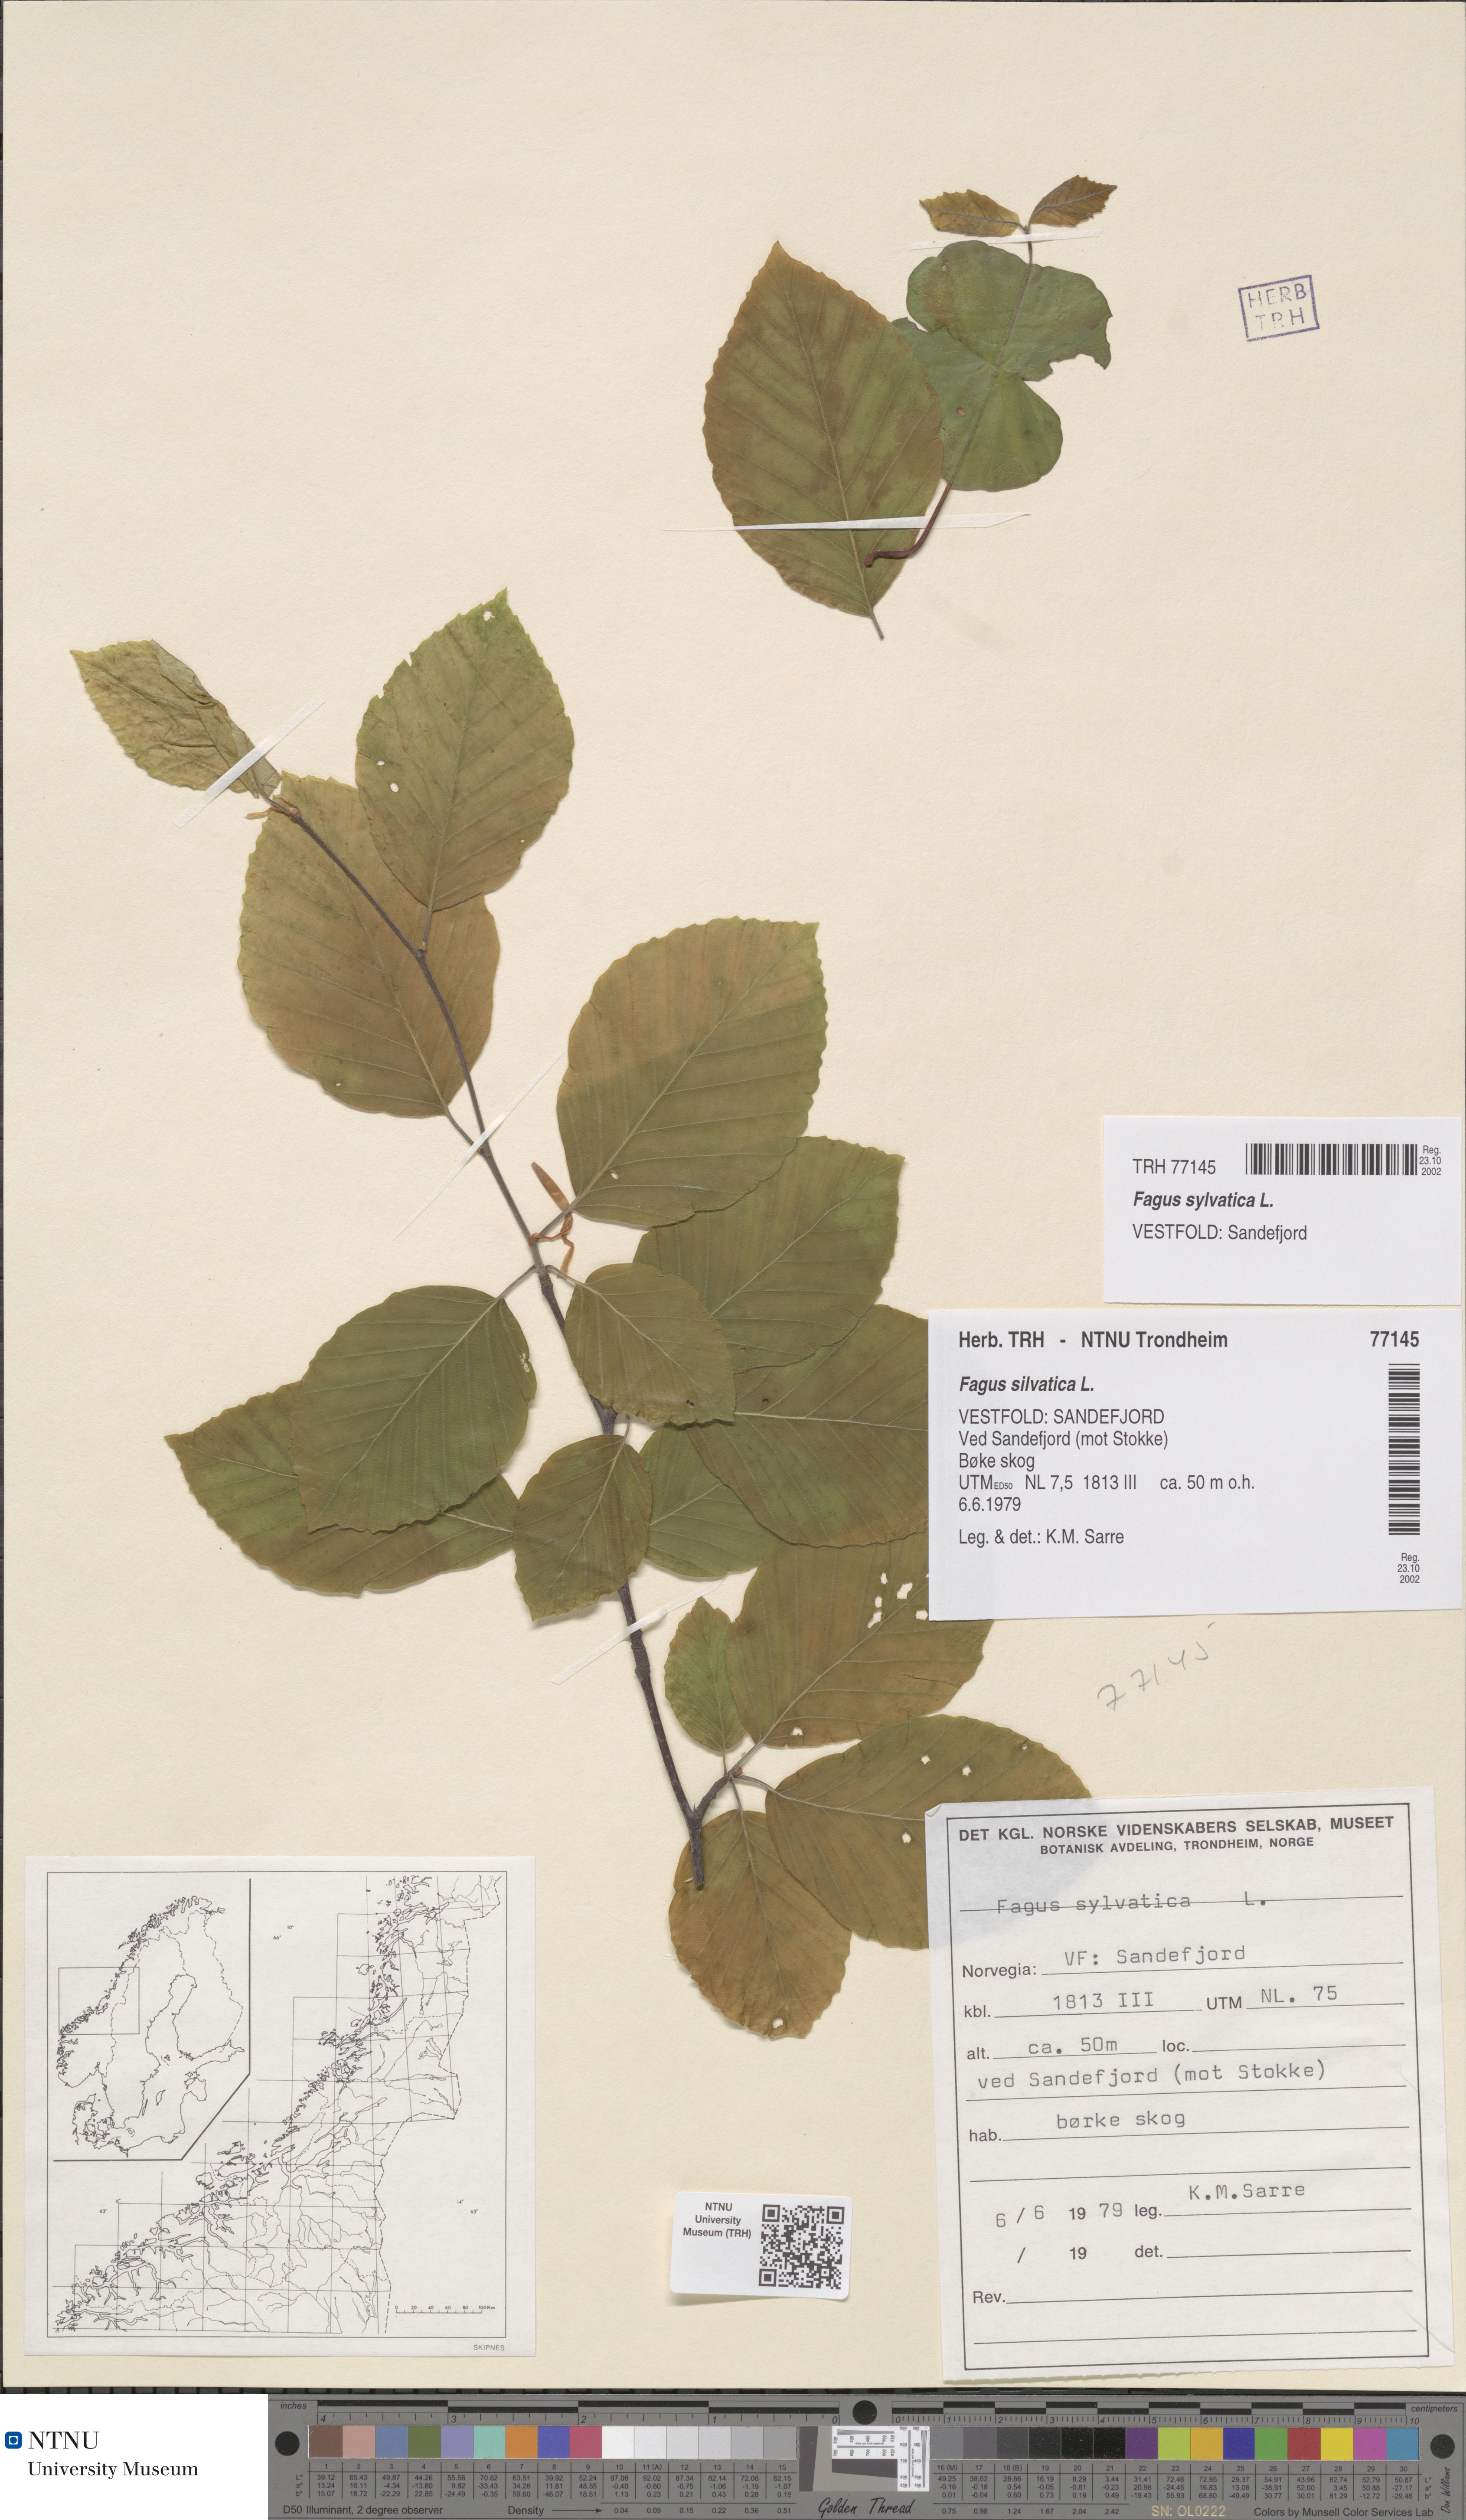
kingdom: Plantae
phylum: Tracheophyta
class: Magnoliopsida
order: Fagales
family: Fagaceae
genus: Fagus
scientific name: Fagus sylvatica
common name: Beech
